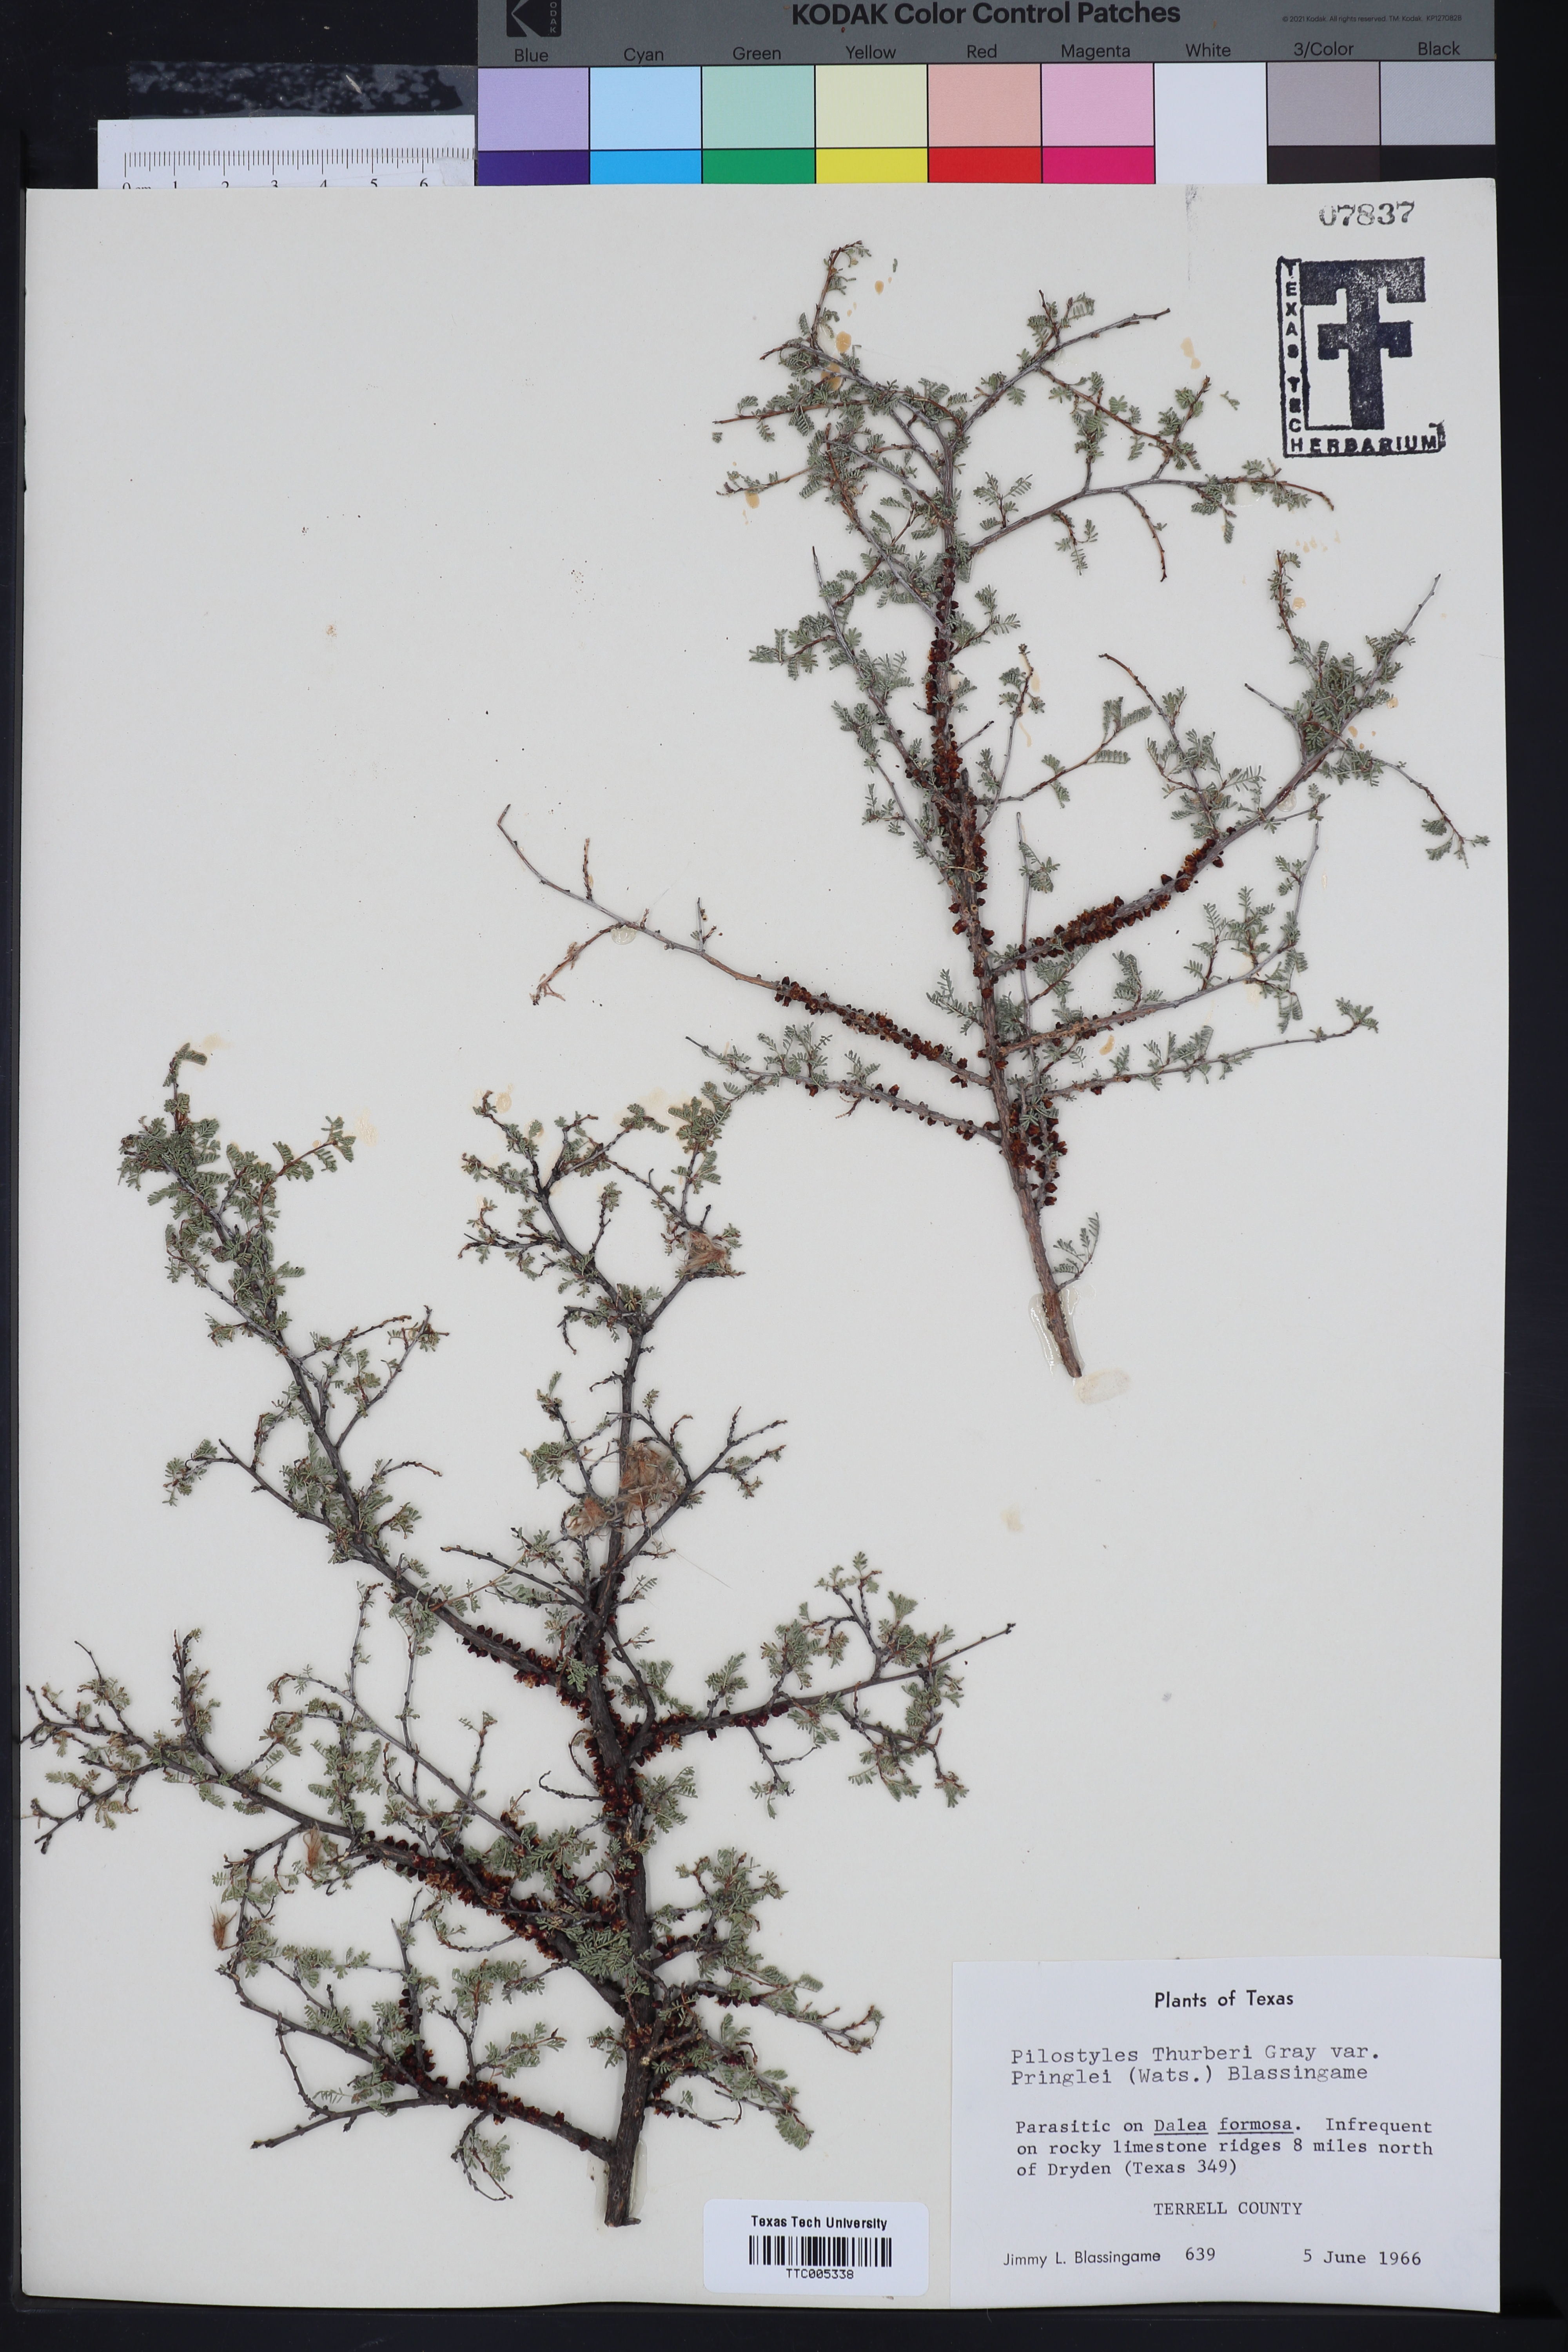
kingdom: Plantae
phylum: Tracheophyta
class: Magnoliopsida
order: Cucurbitales
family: Apodanthaceae
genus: Pilostyles
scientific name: Pilostyles thurberi
